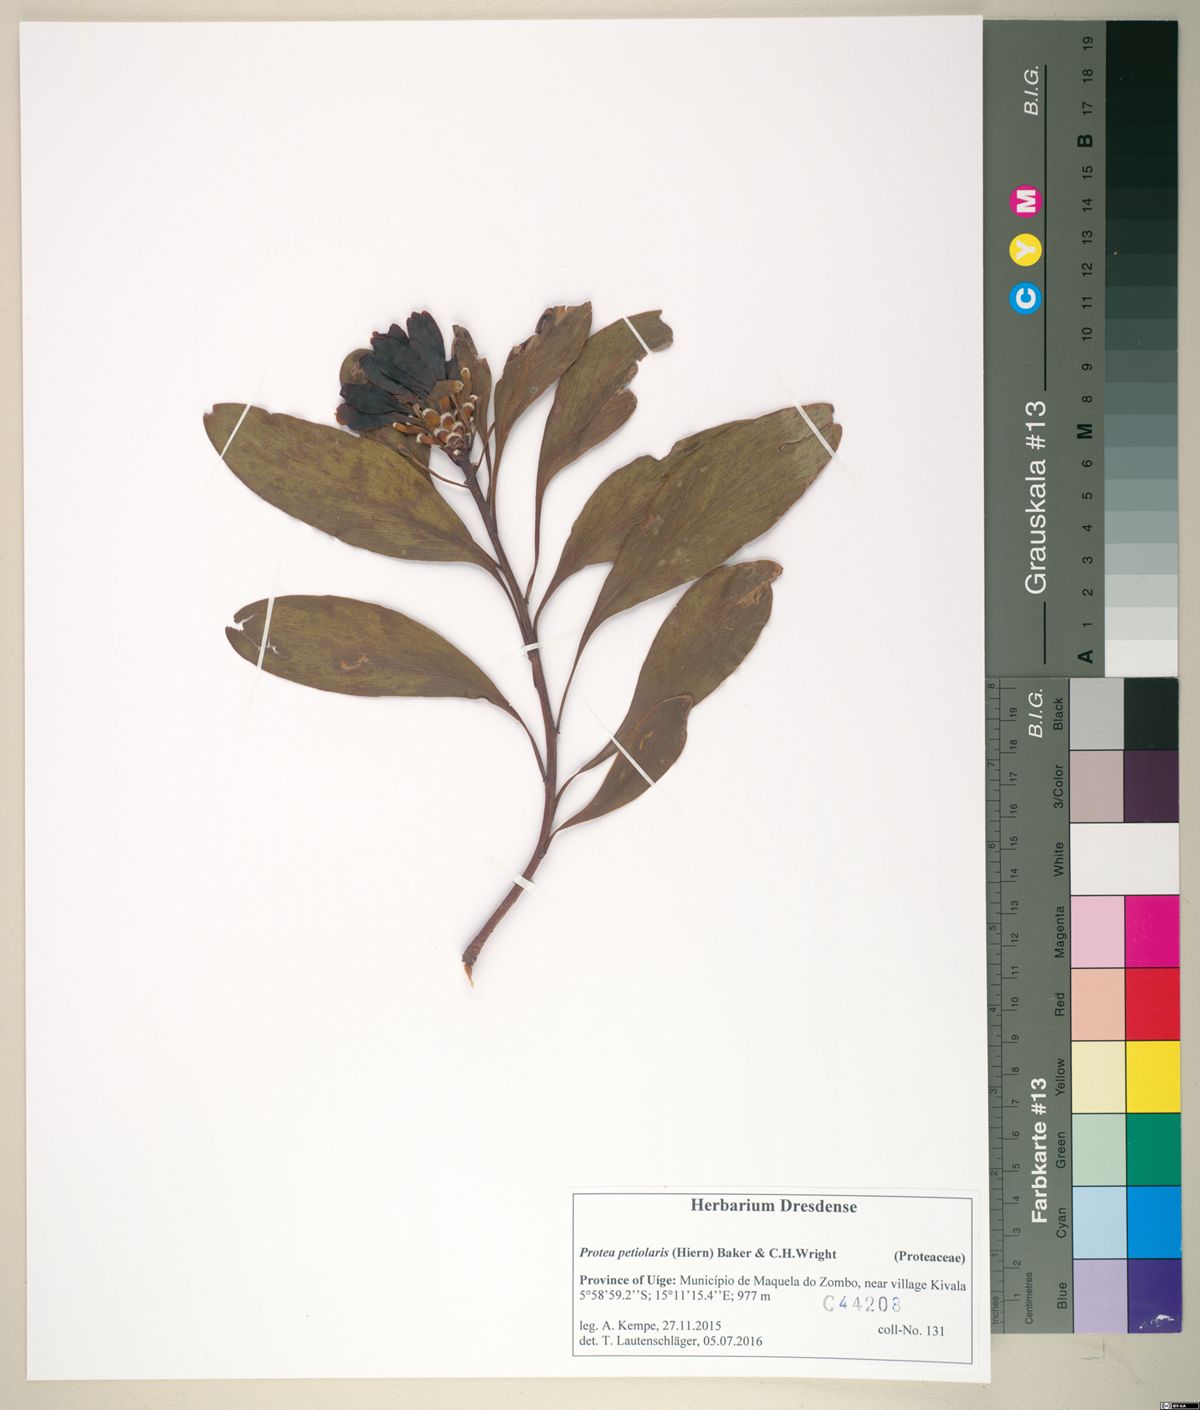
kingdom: Plantae
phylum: Tracheophyta
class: Magnoliopsida
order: Proteales
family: Proteaceae
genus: Protea
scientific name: Protea petiolaris
